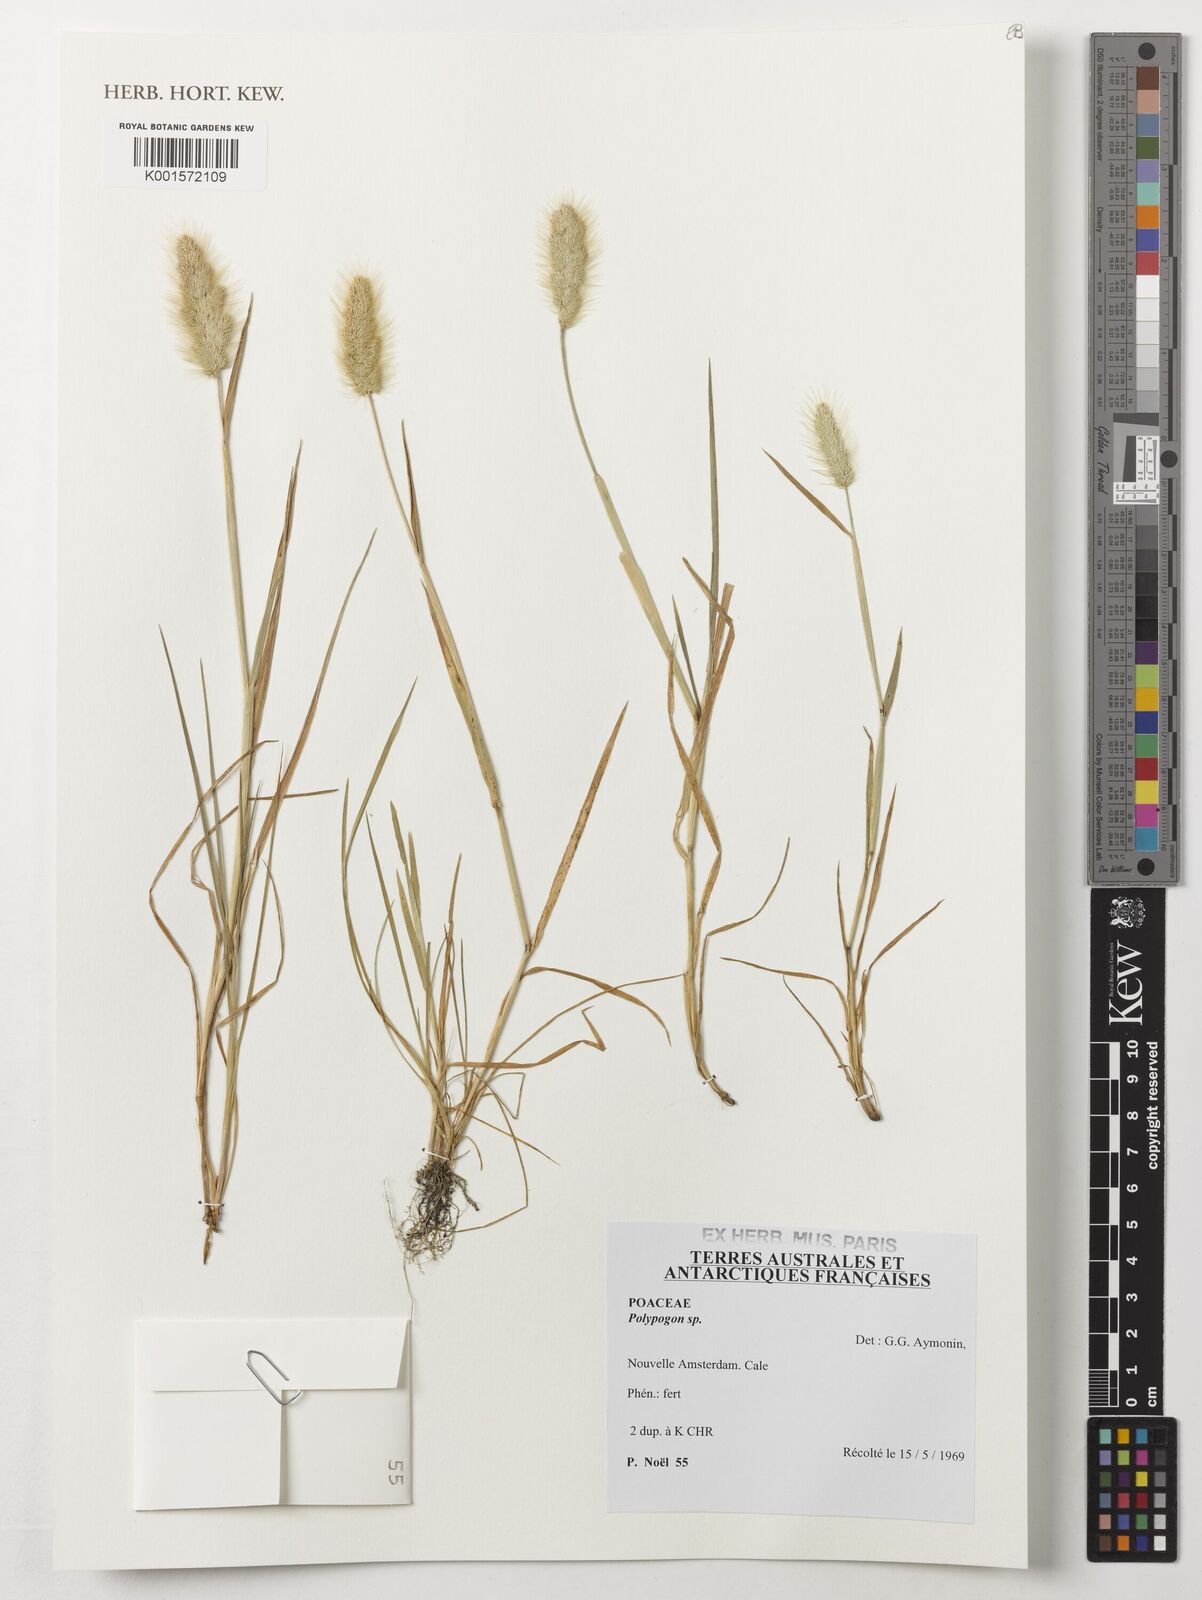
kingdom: Plantae
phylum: Tracheophyta
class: Liliopsida
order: Poales
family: Poaceae
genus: Polypogon
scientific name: Polypogon
